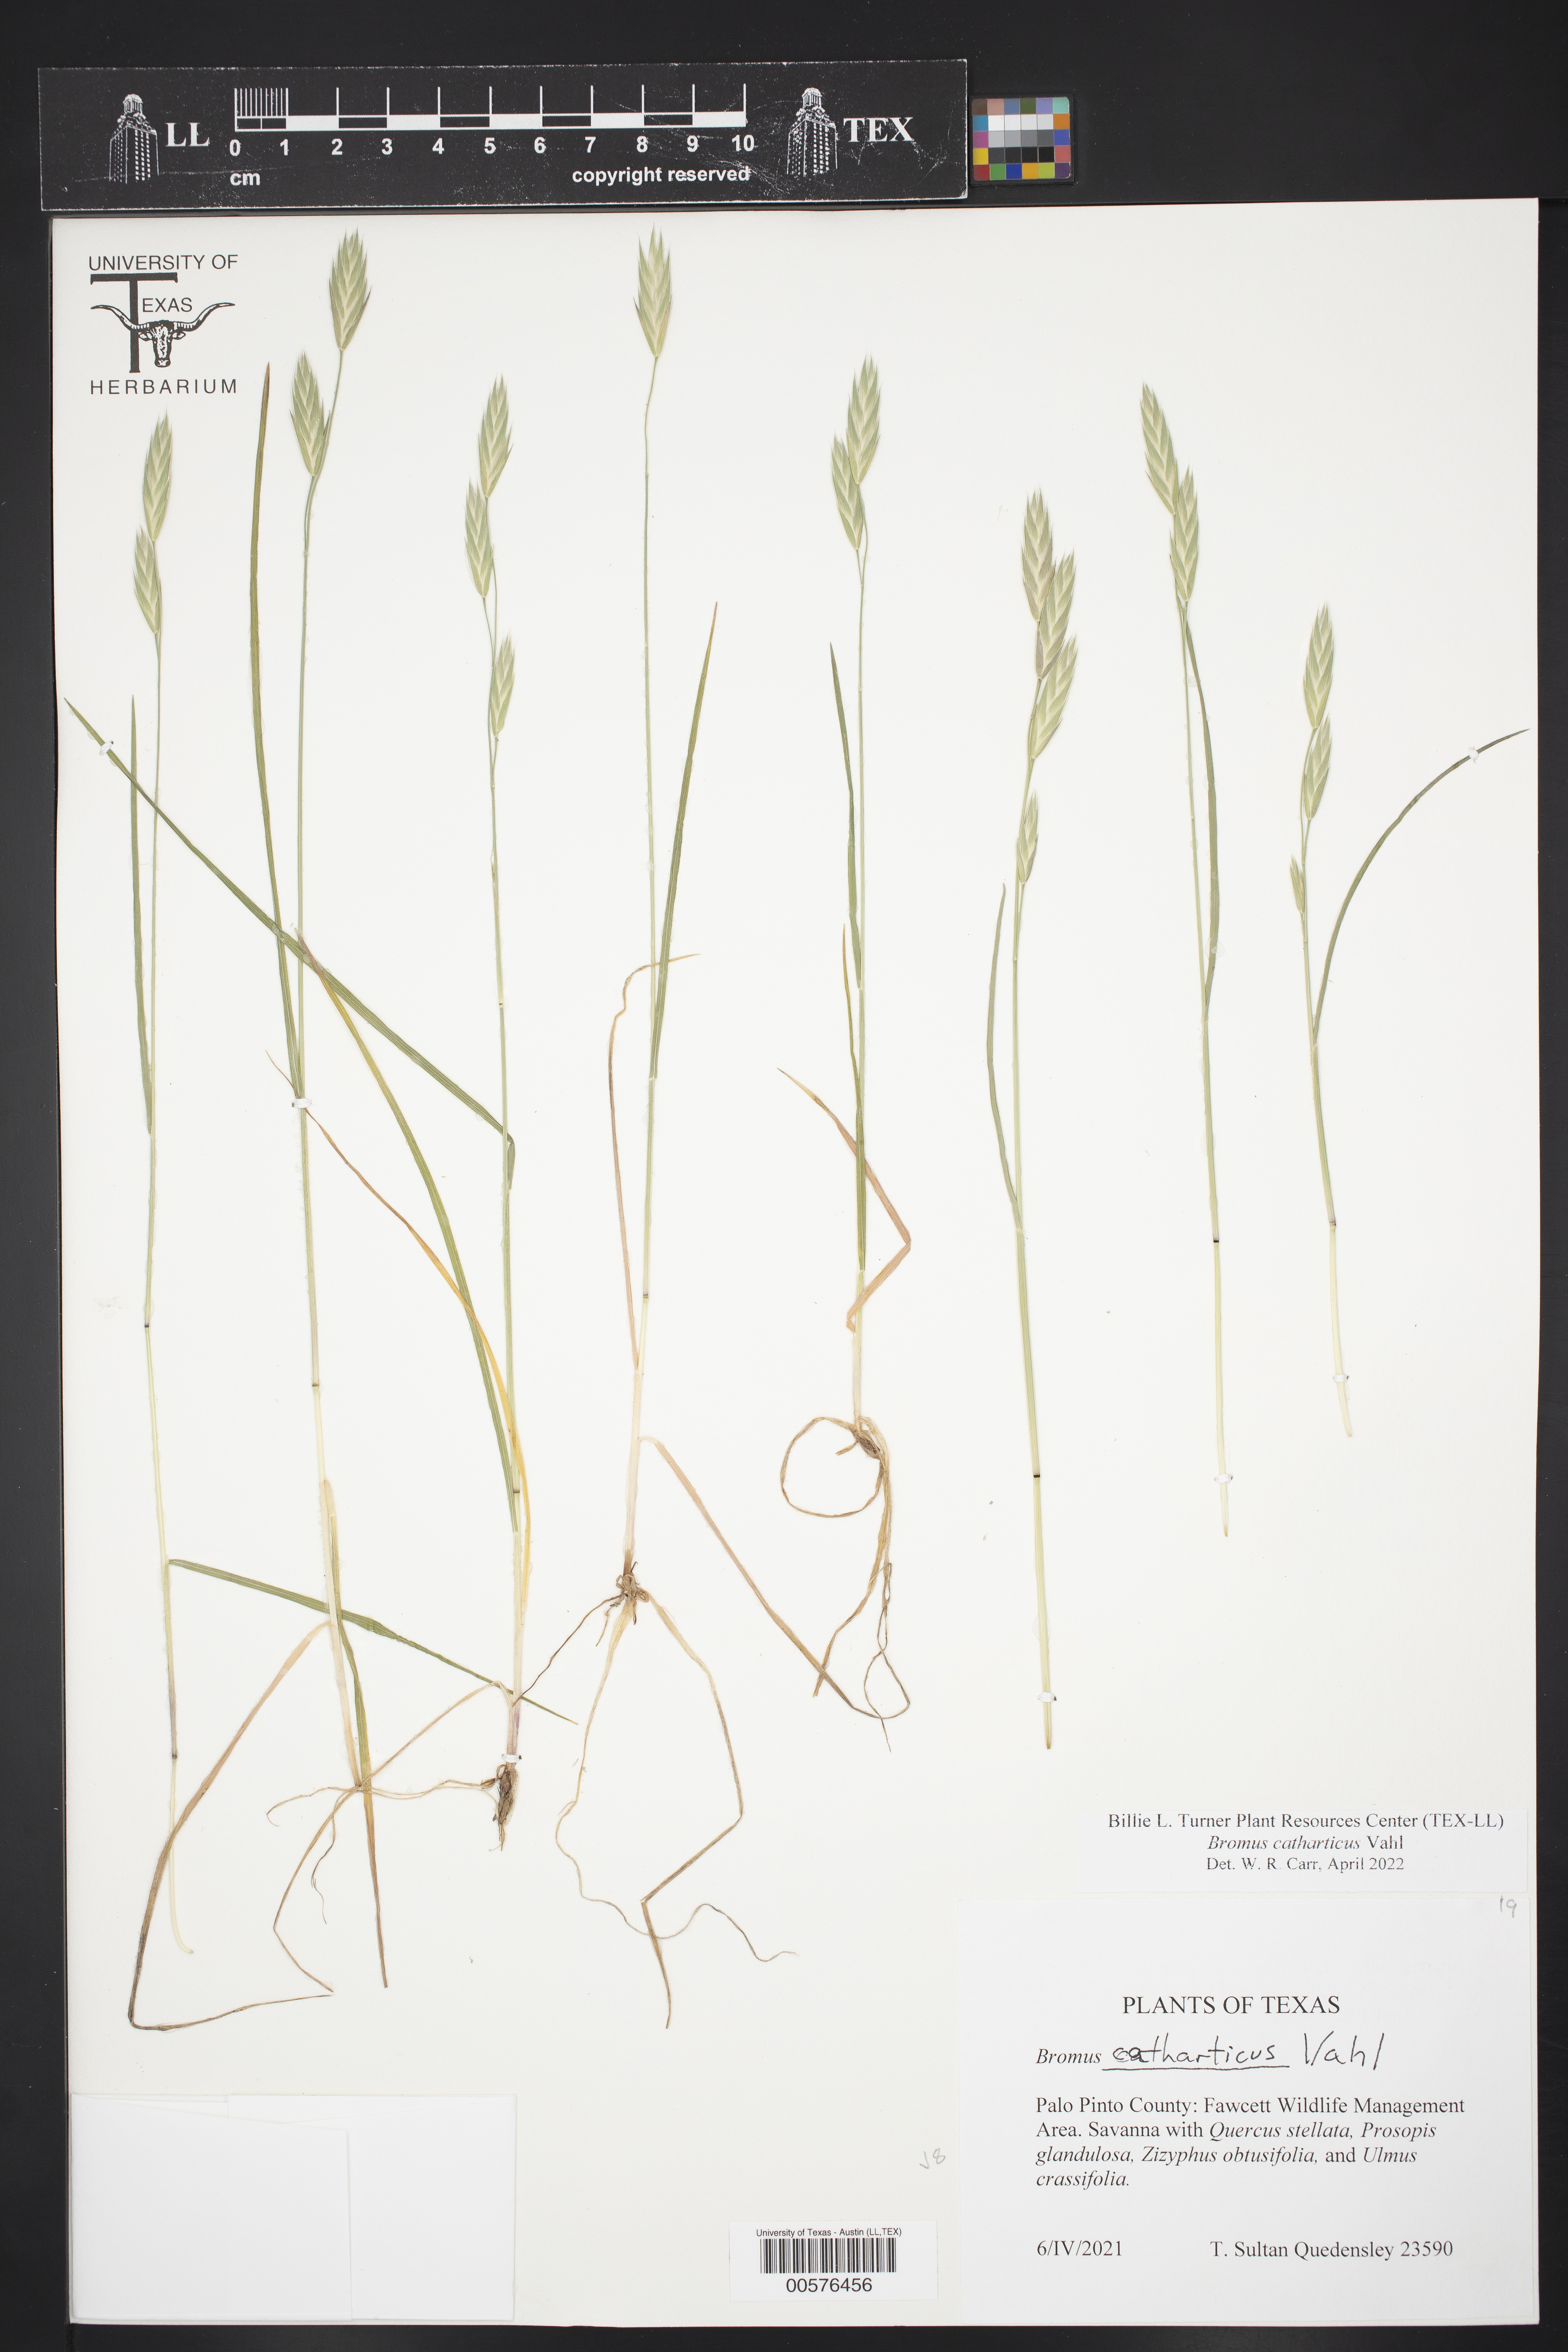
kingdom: Plantae
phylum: Tracheophyta
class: Liliopsida
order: Poales
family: Poaceae
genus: Bromus
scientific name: Bromus catharticus
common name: Rescuegrass
